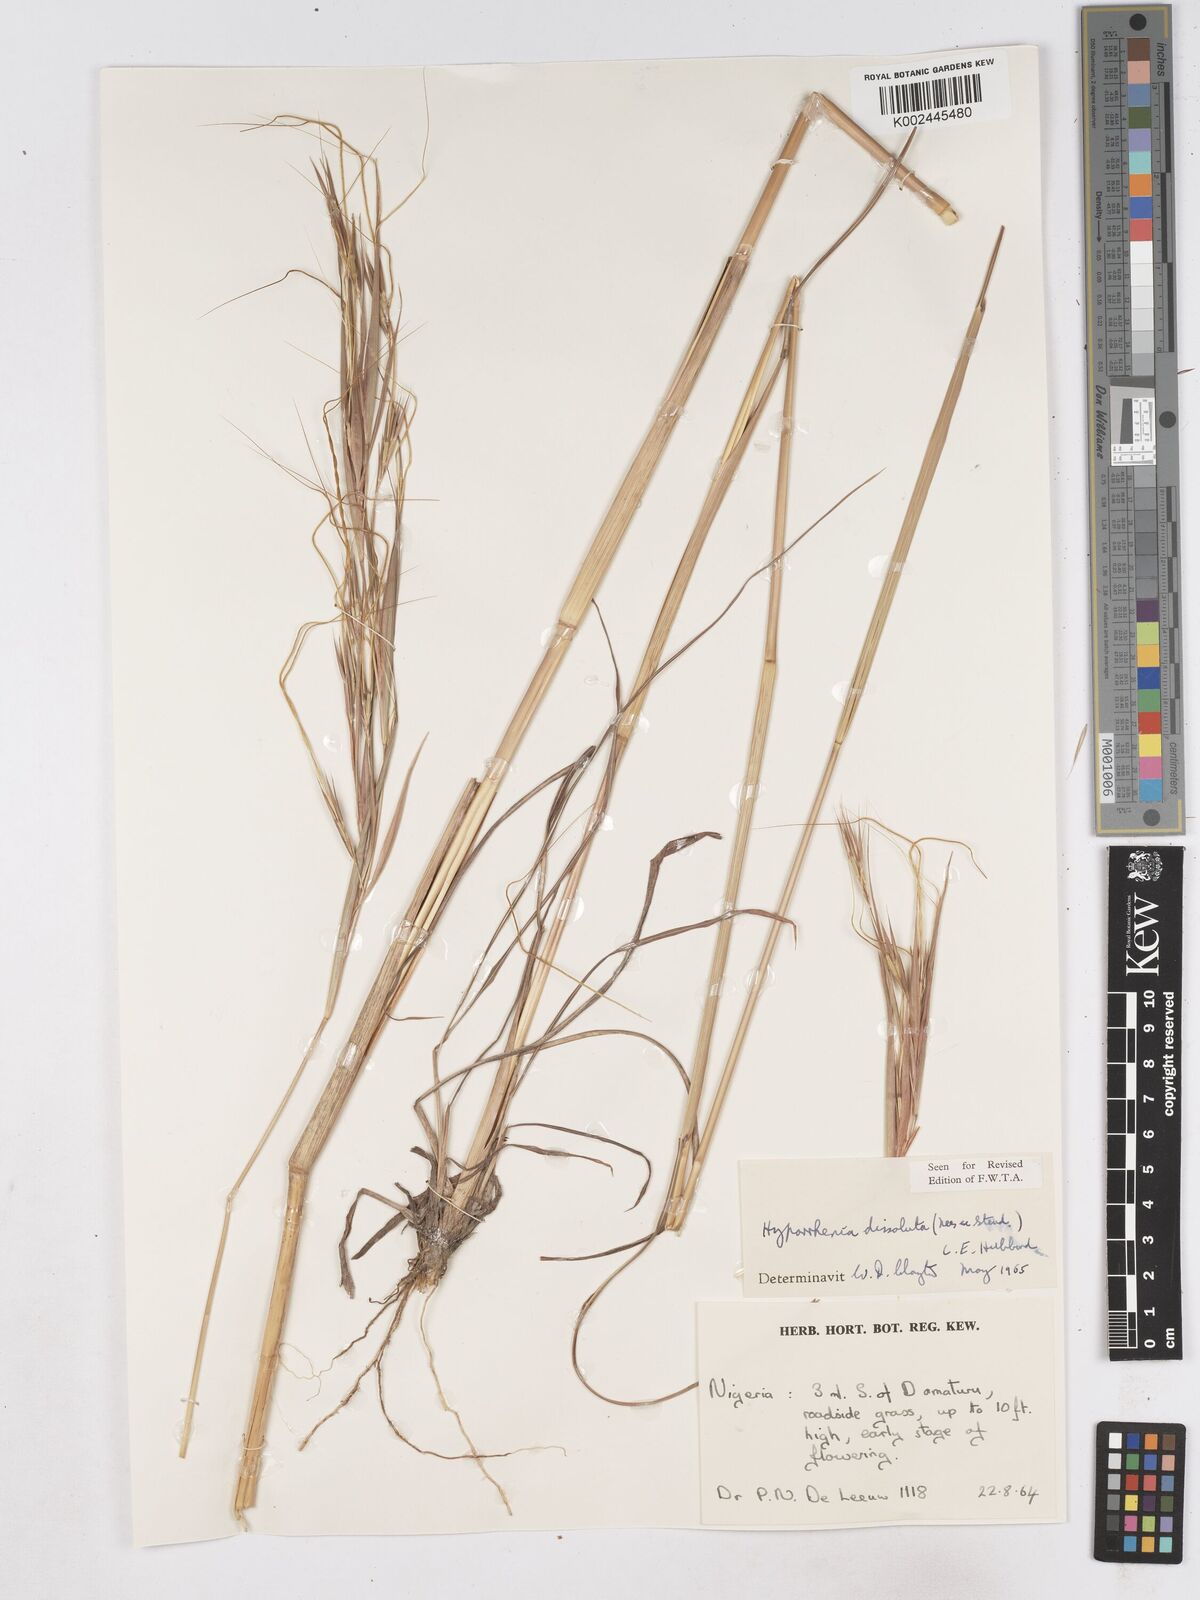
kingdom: Plantae
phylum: Tracheophyta
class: Liliopsida
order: Poales
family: Poaceae
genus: Hyperthelia
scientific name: Hyperthelia dissoluta
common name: Yellow thatching grass
